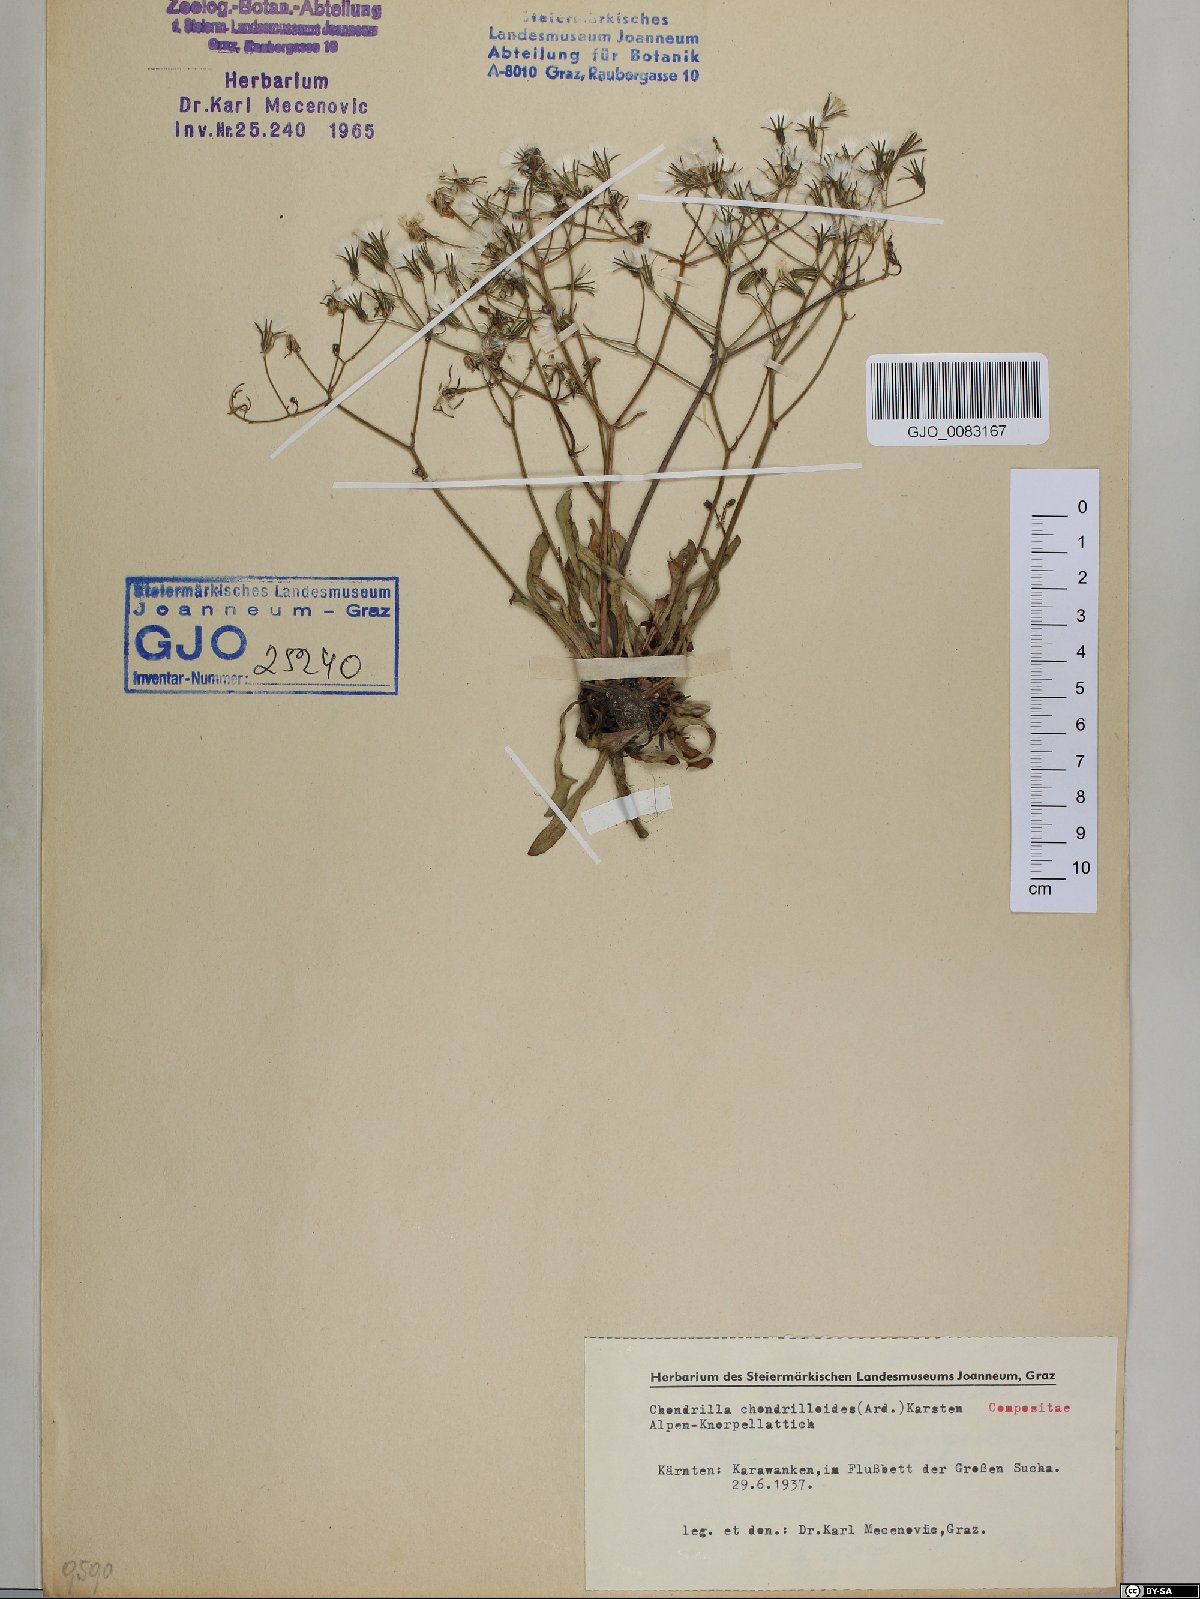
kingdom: Plantae
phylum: Tracheophyta
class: Magnoliopsida
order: Asterales
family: Asteraceae
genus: Chondrilla
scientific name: Chondrilla chondrilloides
